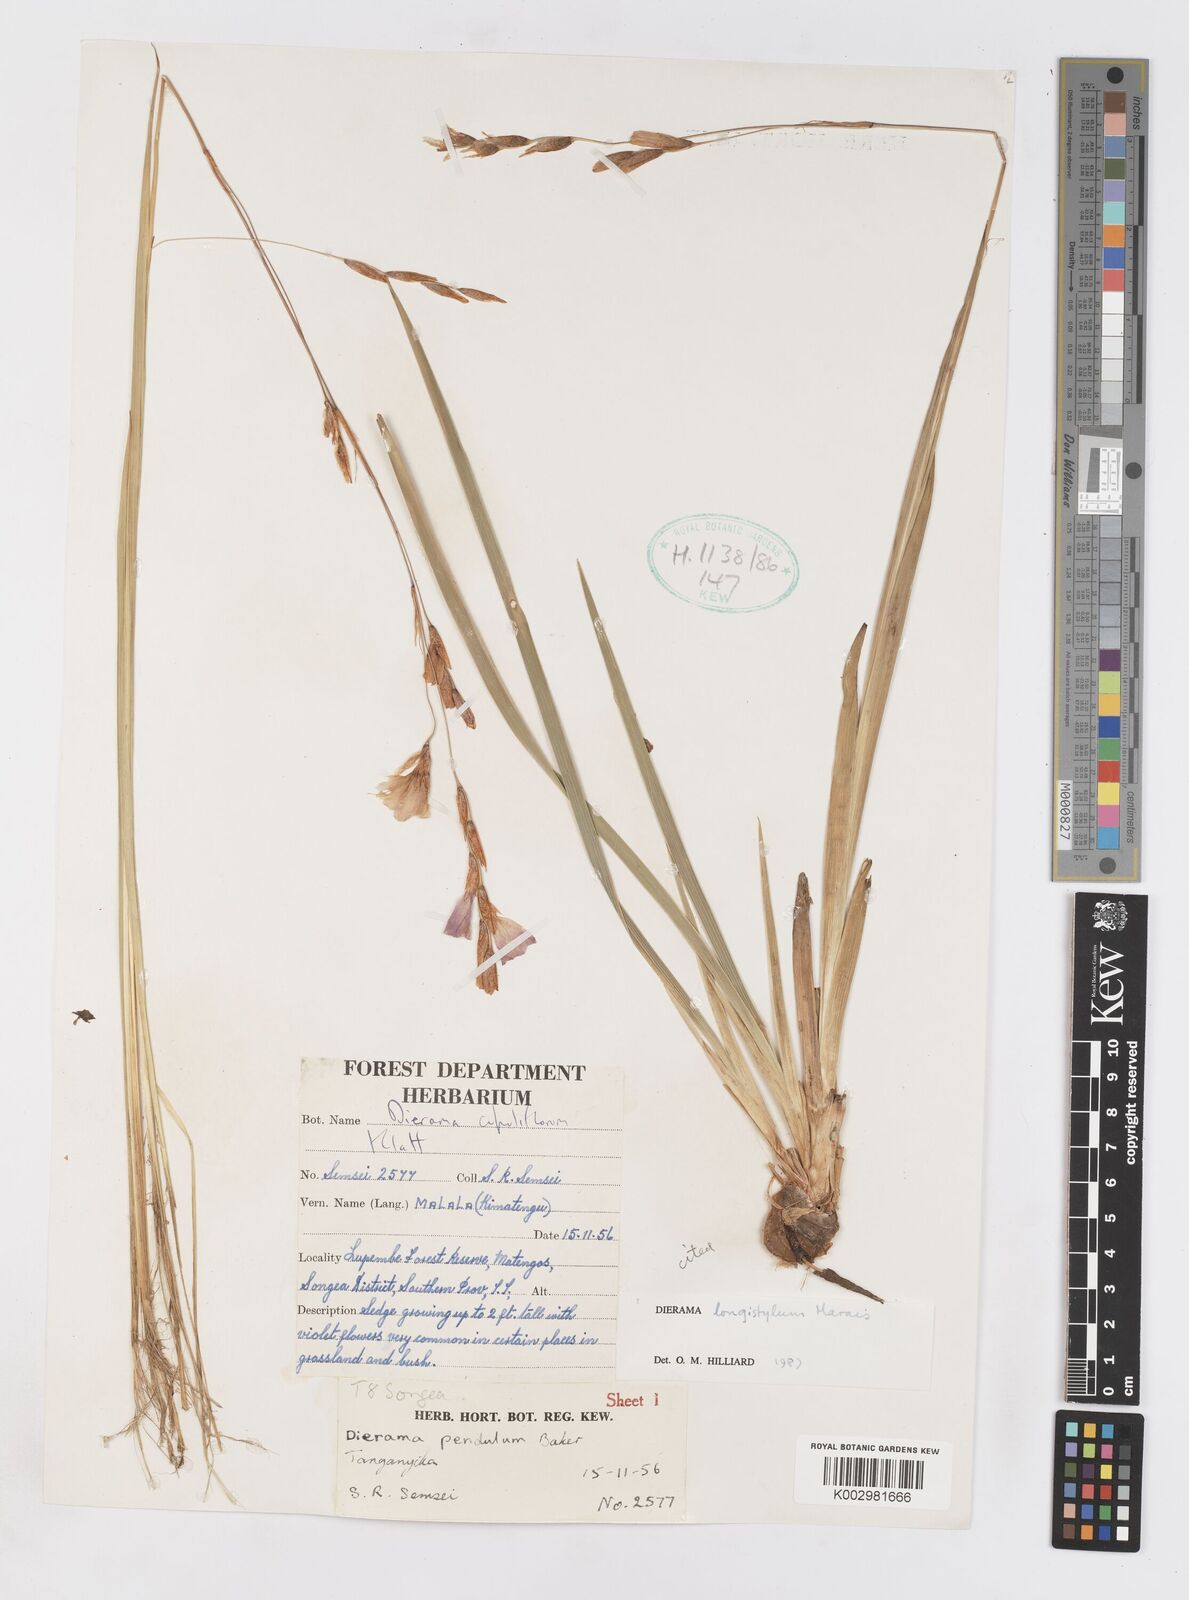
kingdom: Plantae
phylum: Tracheophyta
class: Liliopsida
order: Asparagales
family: Iridaceae
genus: Dierama
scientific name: Dierama longistylum
